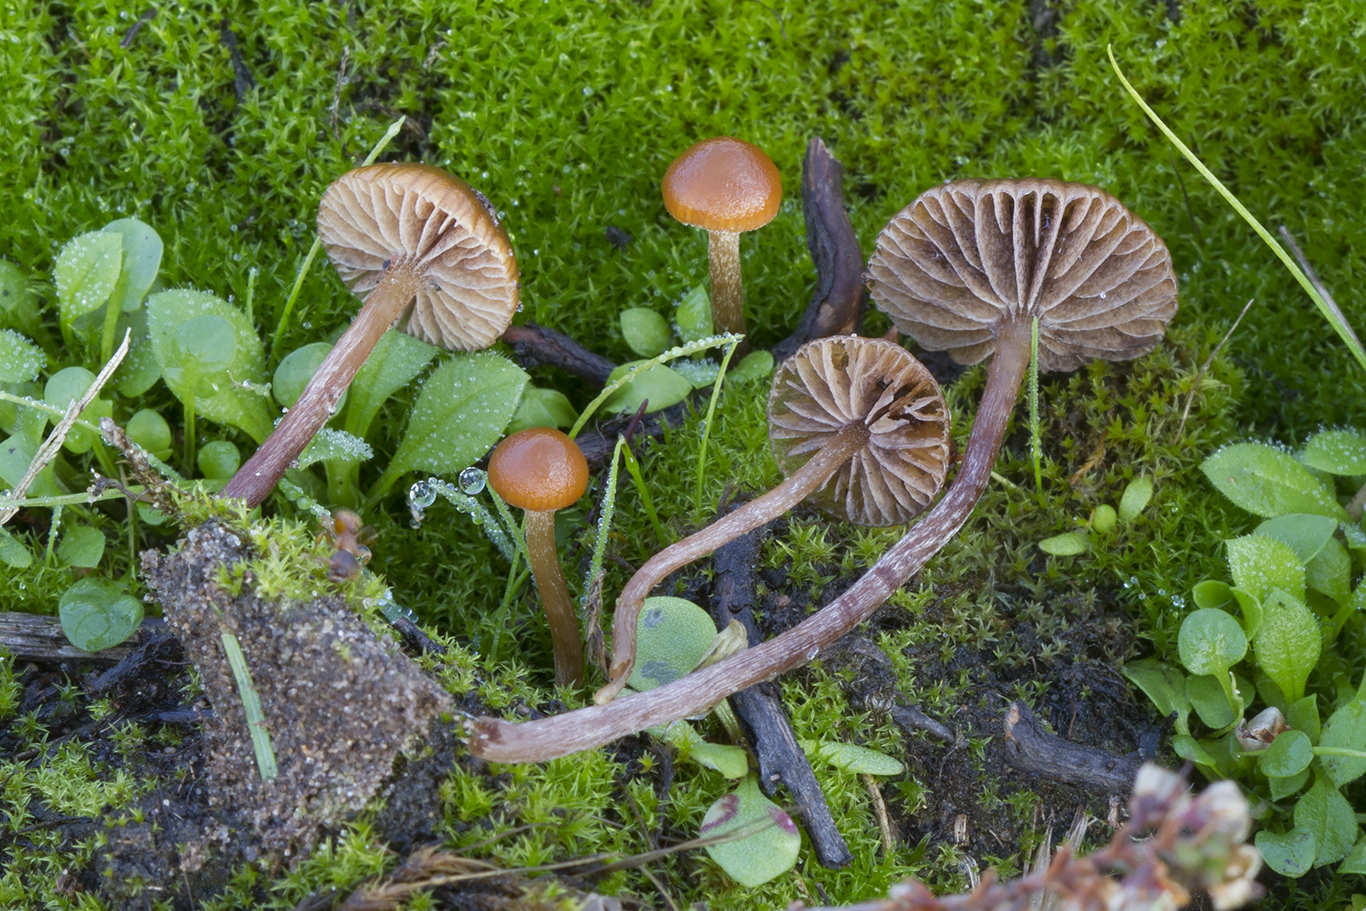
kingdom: Fungi
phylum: Basidiomycota
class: Agaricomycetes
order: Agaricales
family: Strophariaceae
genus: Deconica
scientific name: Deconica montana
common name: rødbrun stråhat
